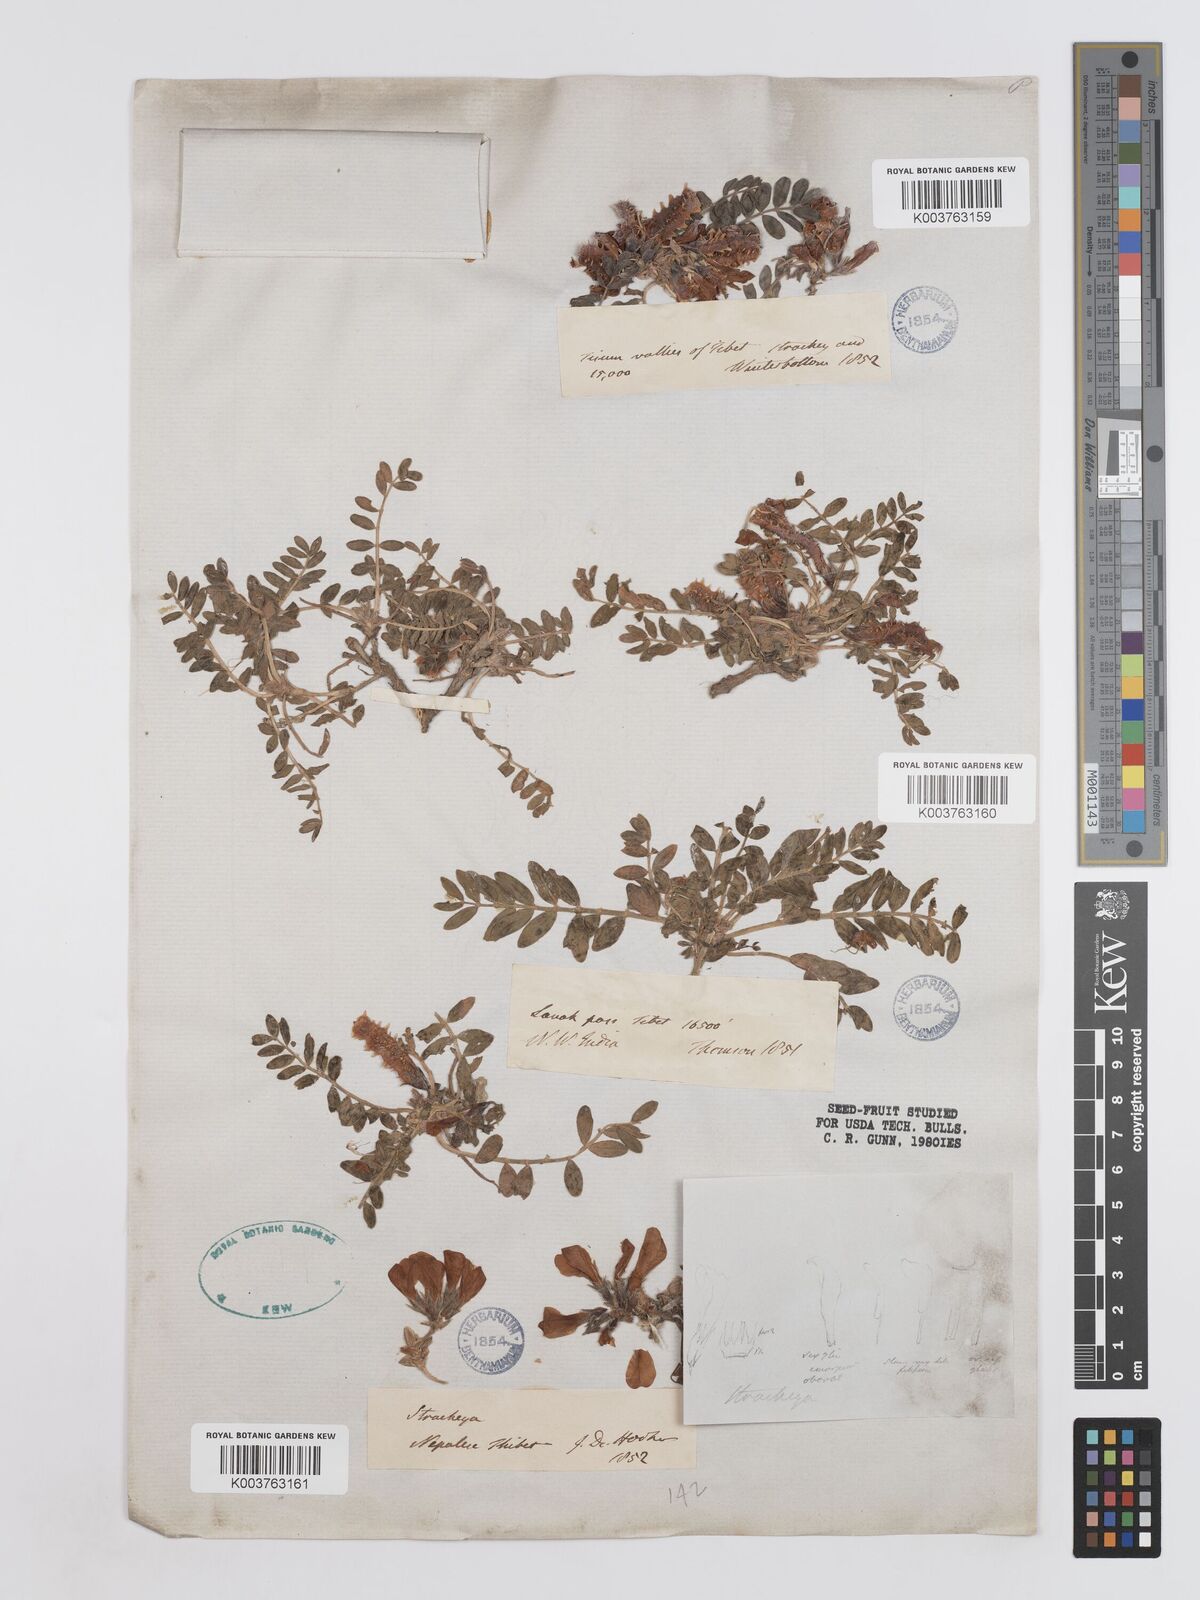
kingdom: Plantae
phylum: Tracheophyta
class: Magnoliopsida
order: Fabales
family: Fabaceae
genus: Hedysarum
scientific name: Hedysarum micropterum
